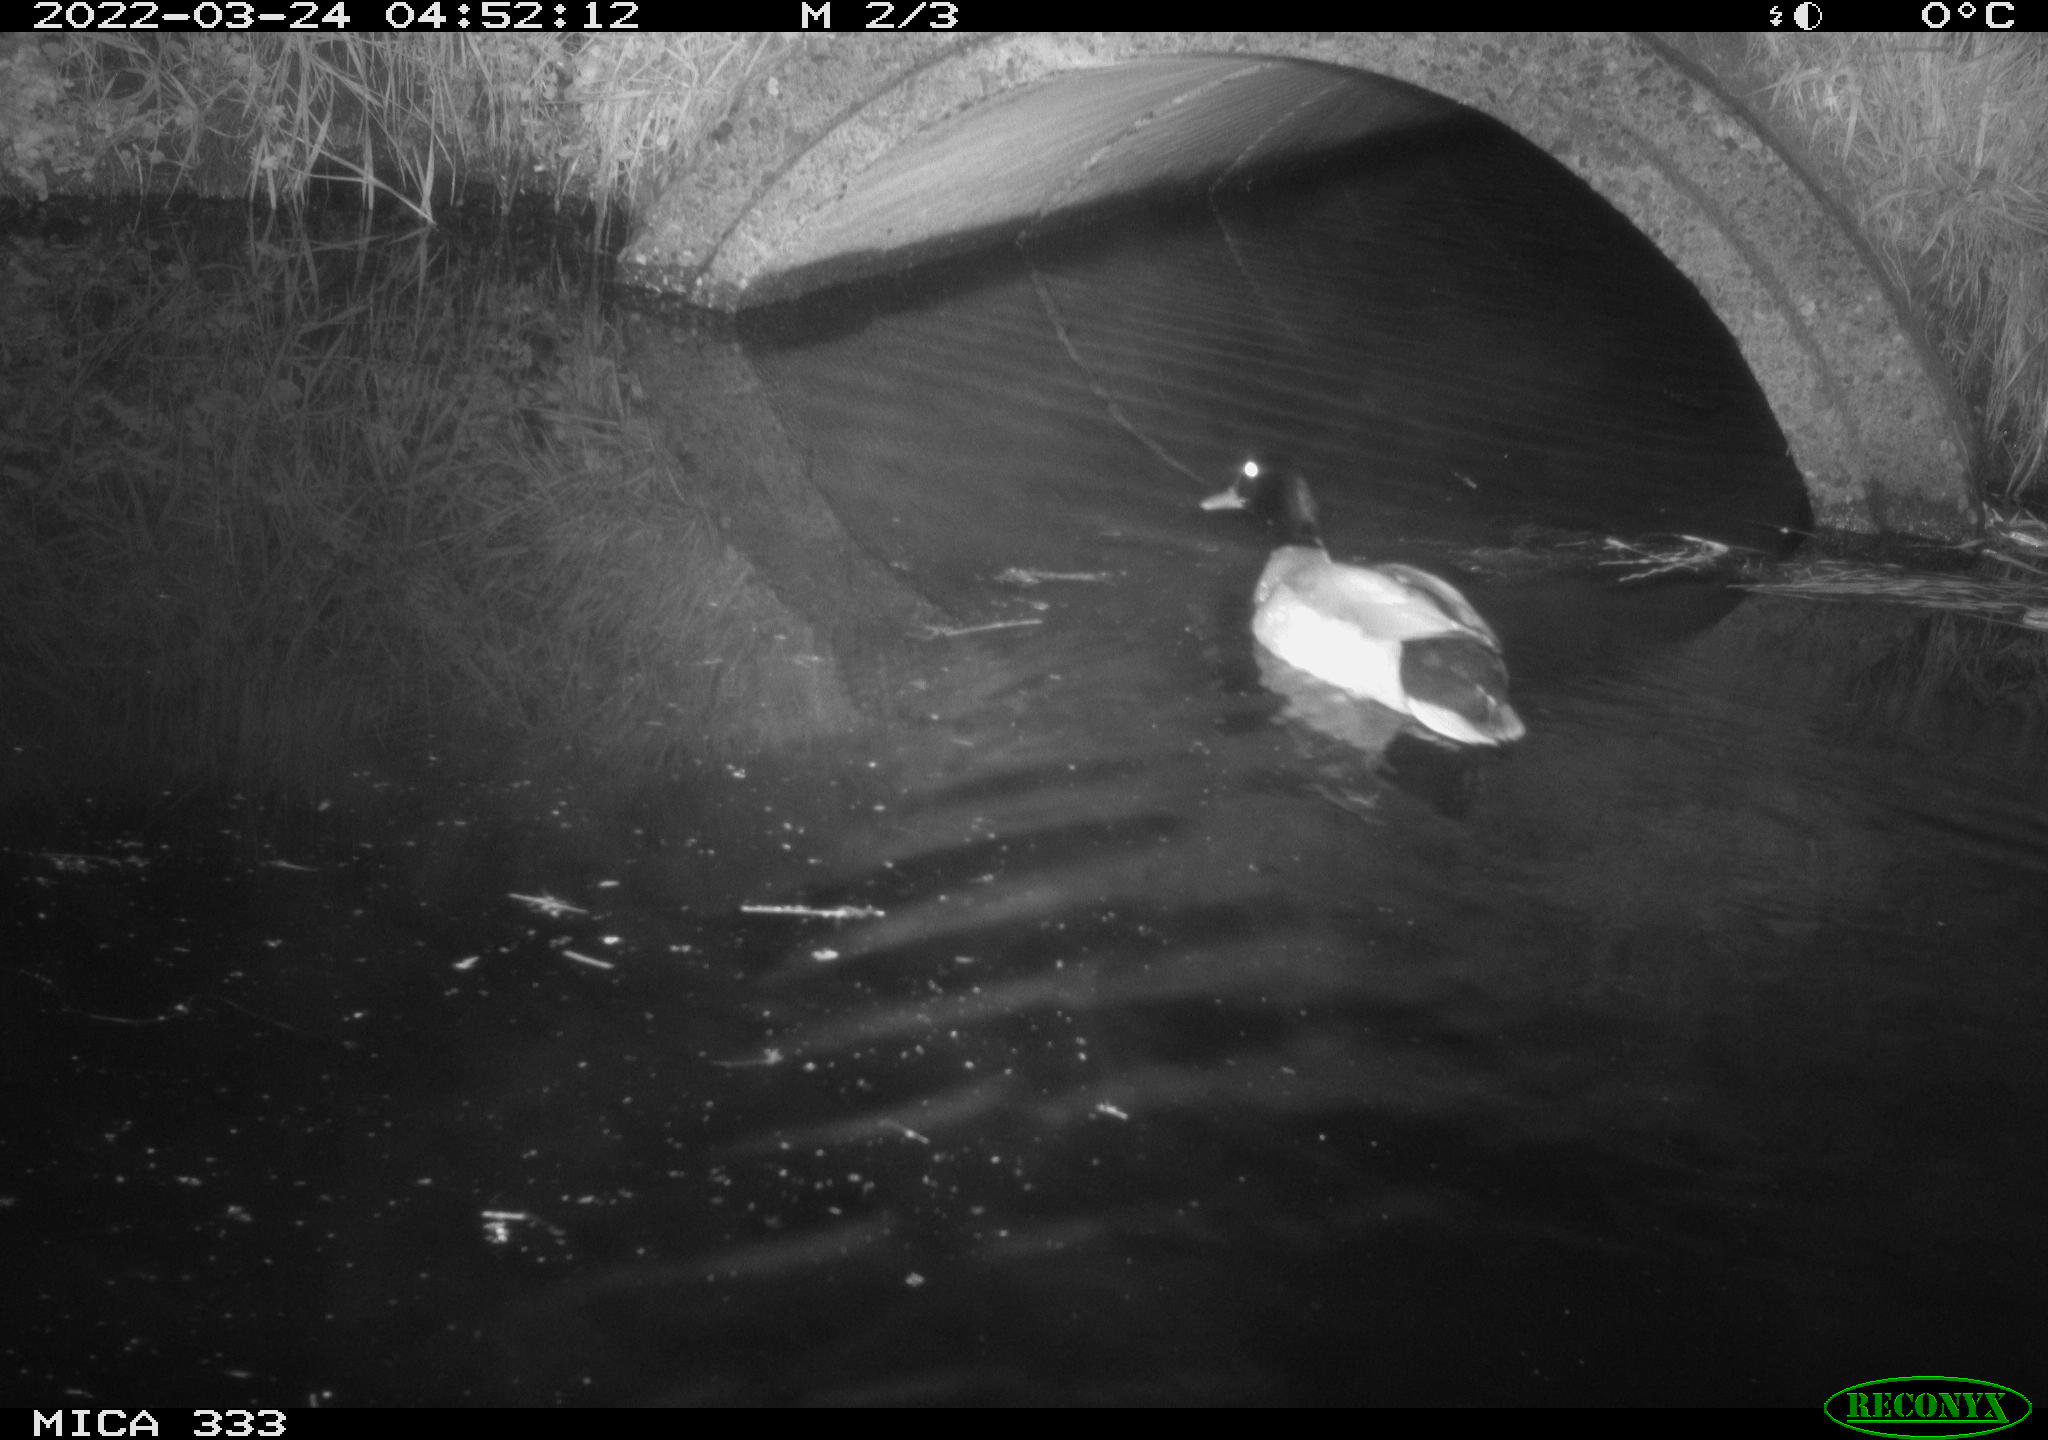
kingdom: Animalia
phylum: Chordata
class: Aves
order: Anseriformes
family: Anatidae
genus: Anas
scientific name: Anas platyrhynchos
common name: Mallard
